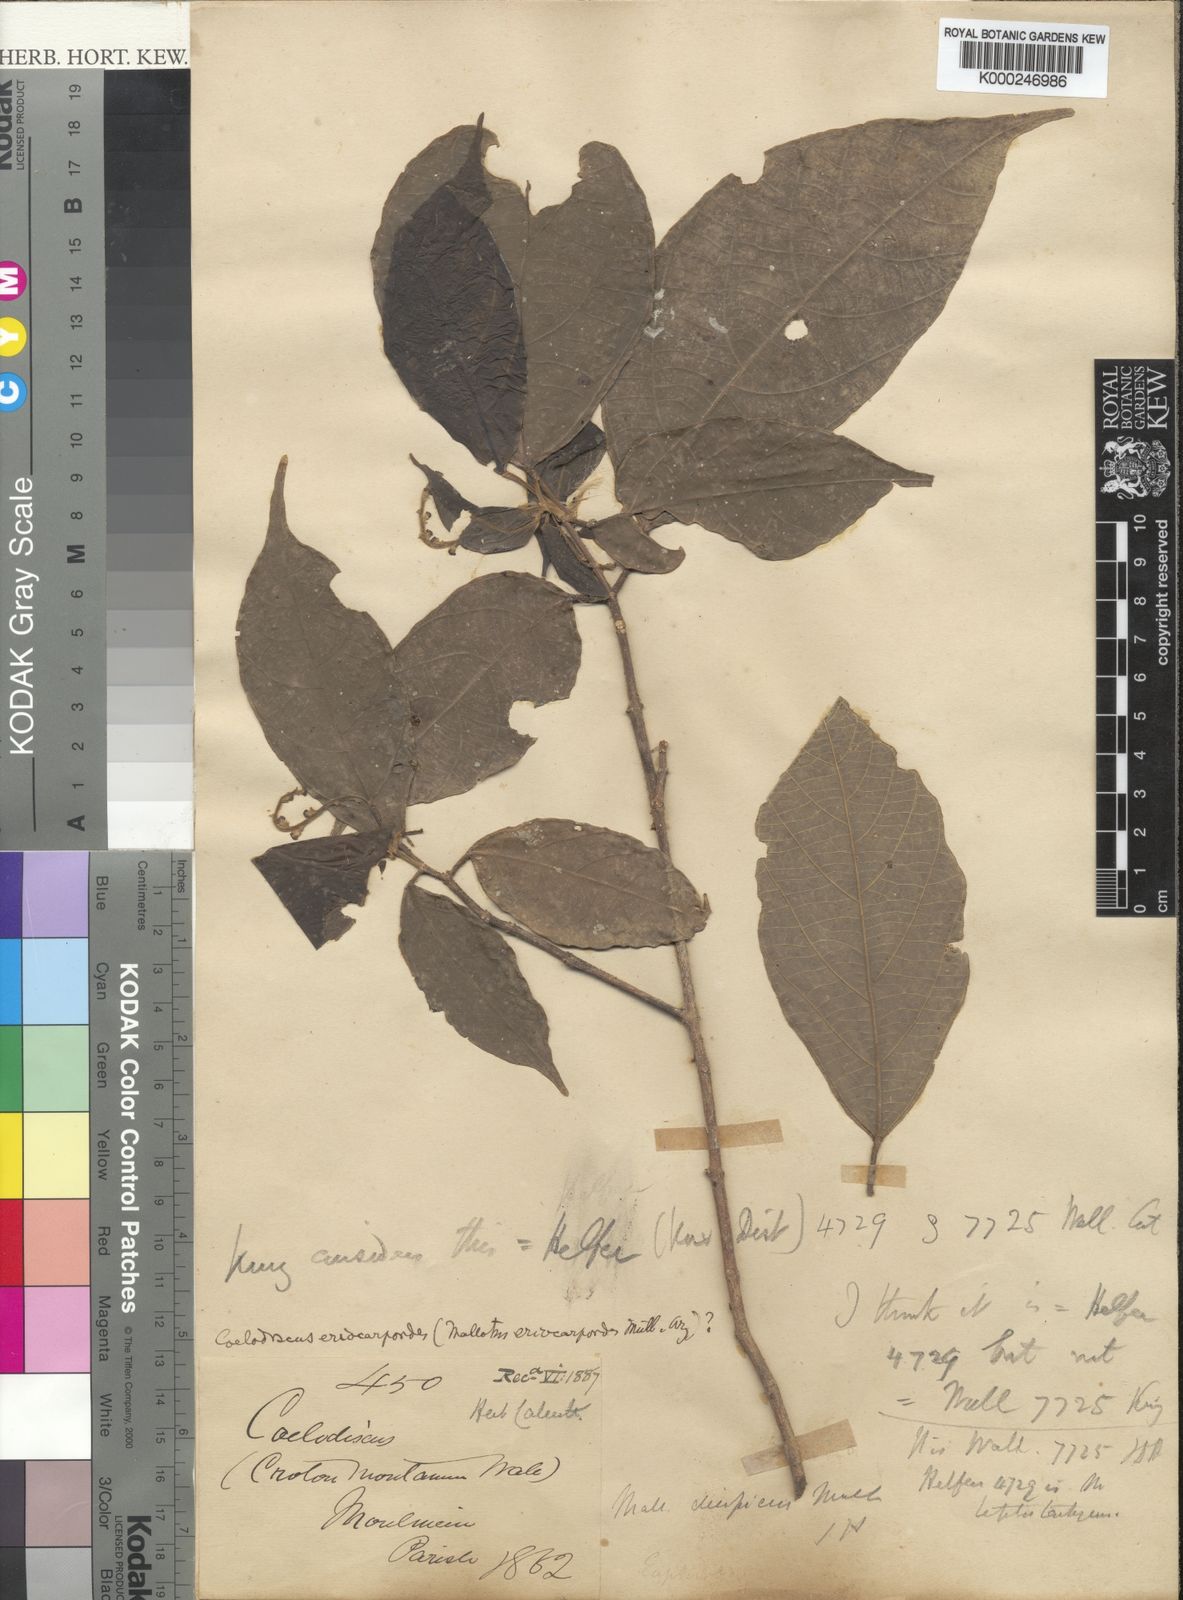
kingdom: Plantae
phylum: Tracheophyta
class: Magnoliopsida
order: Malpighiales
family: Euphorbiaceae
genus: Mallotus
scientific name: Mallotus
